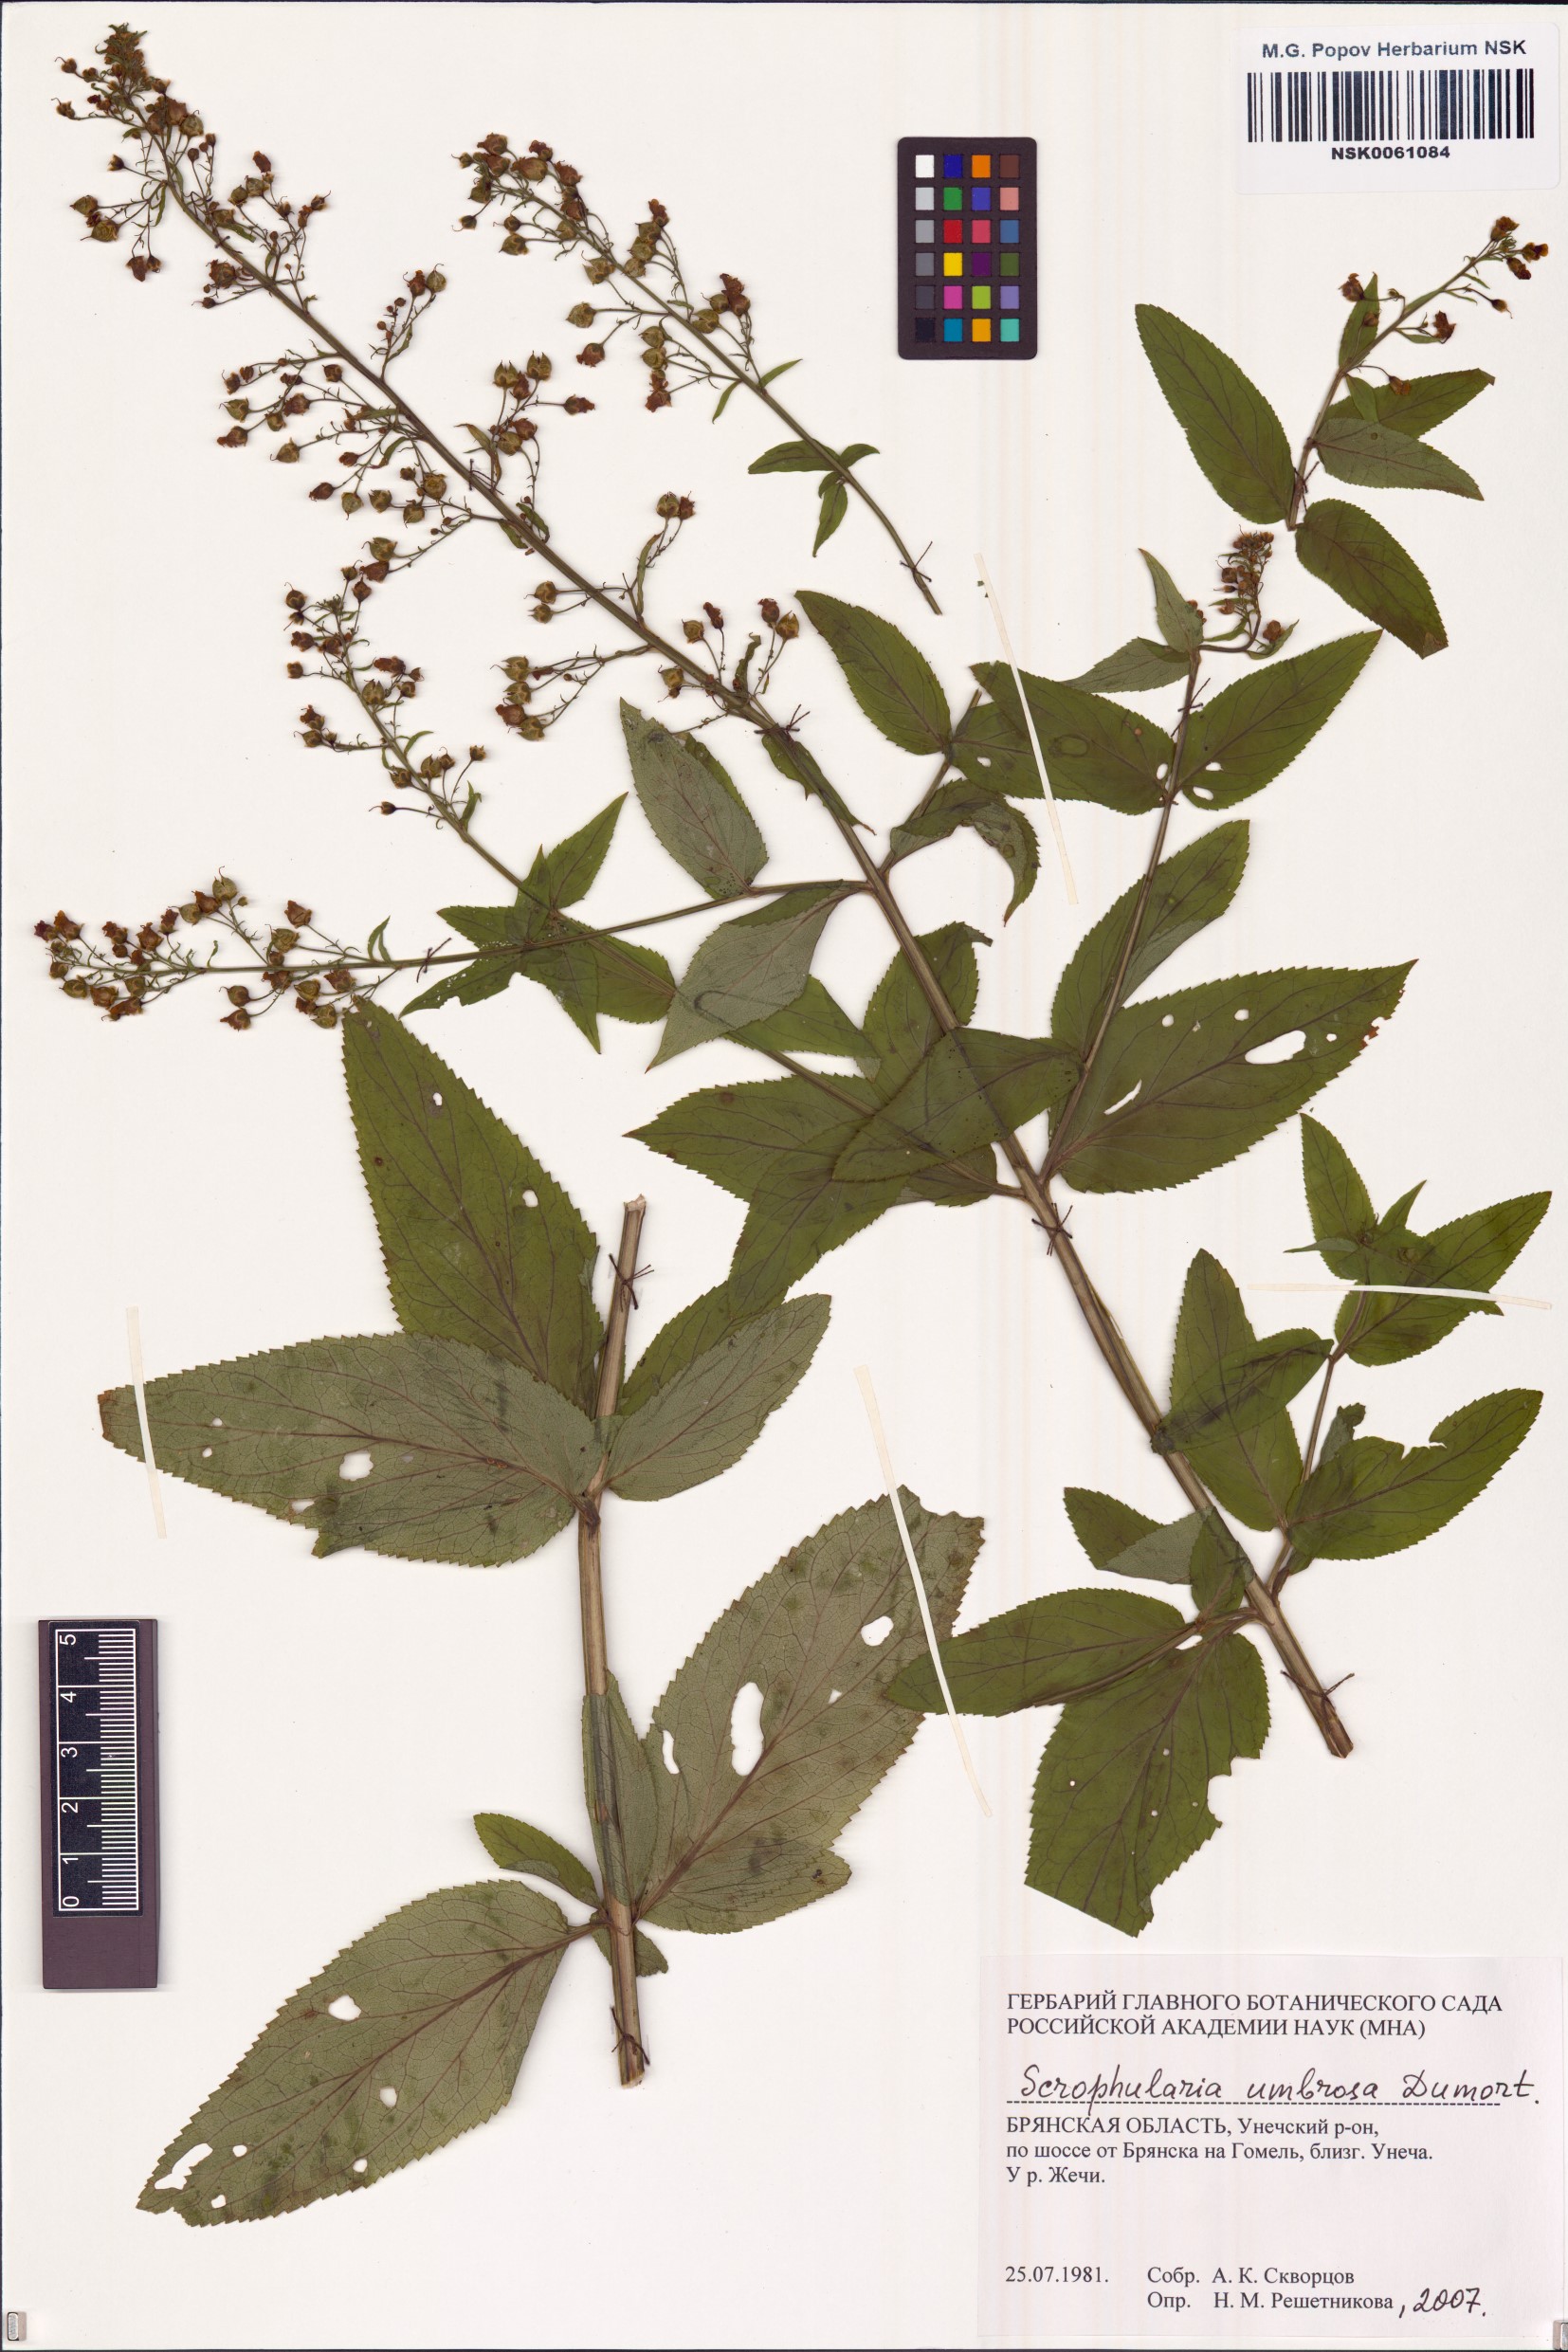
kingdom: Plantae
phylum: Tracheophyta
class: Magnoliopsida
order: Lamiales
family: Scrophulariaceae
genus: Scrophularia
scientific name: Scrophularia umbrosa
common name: Green figwort
